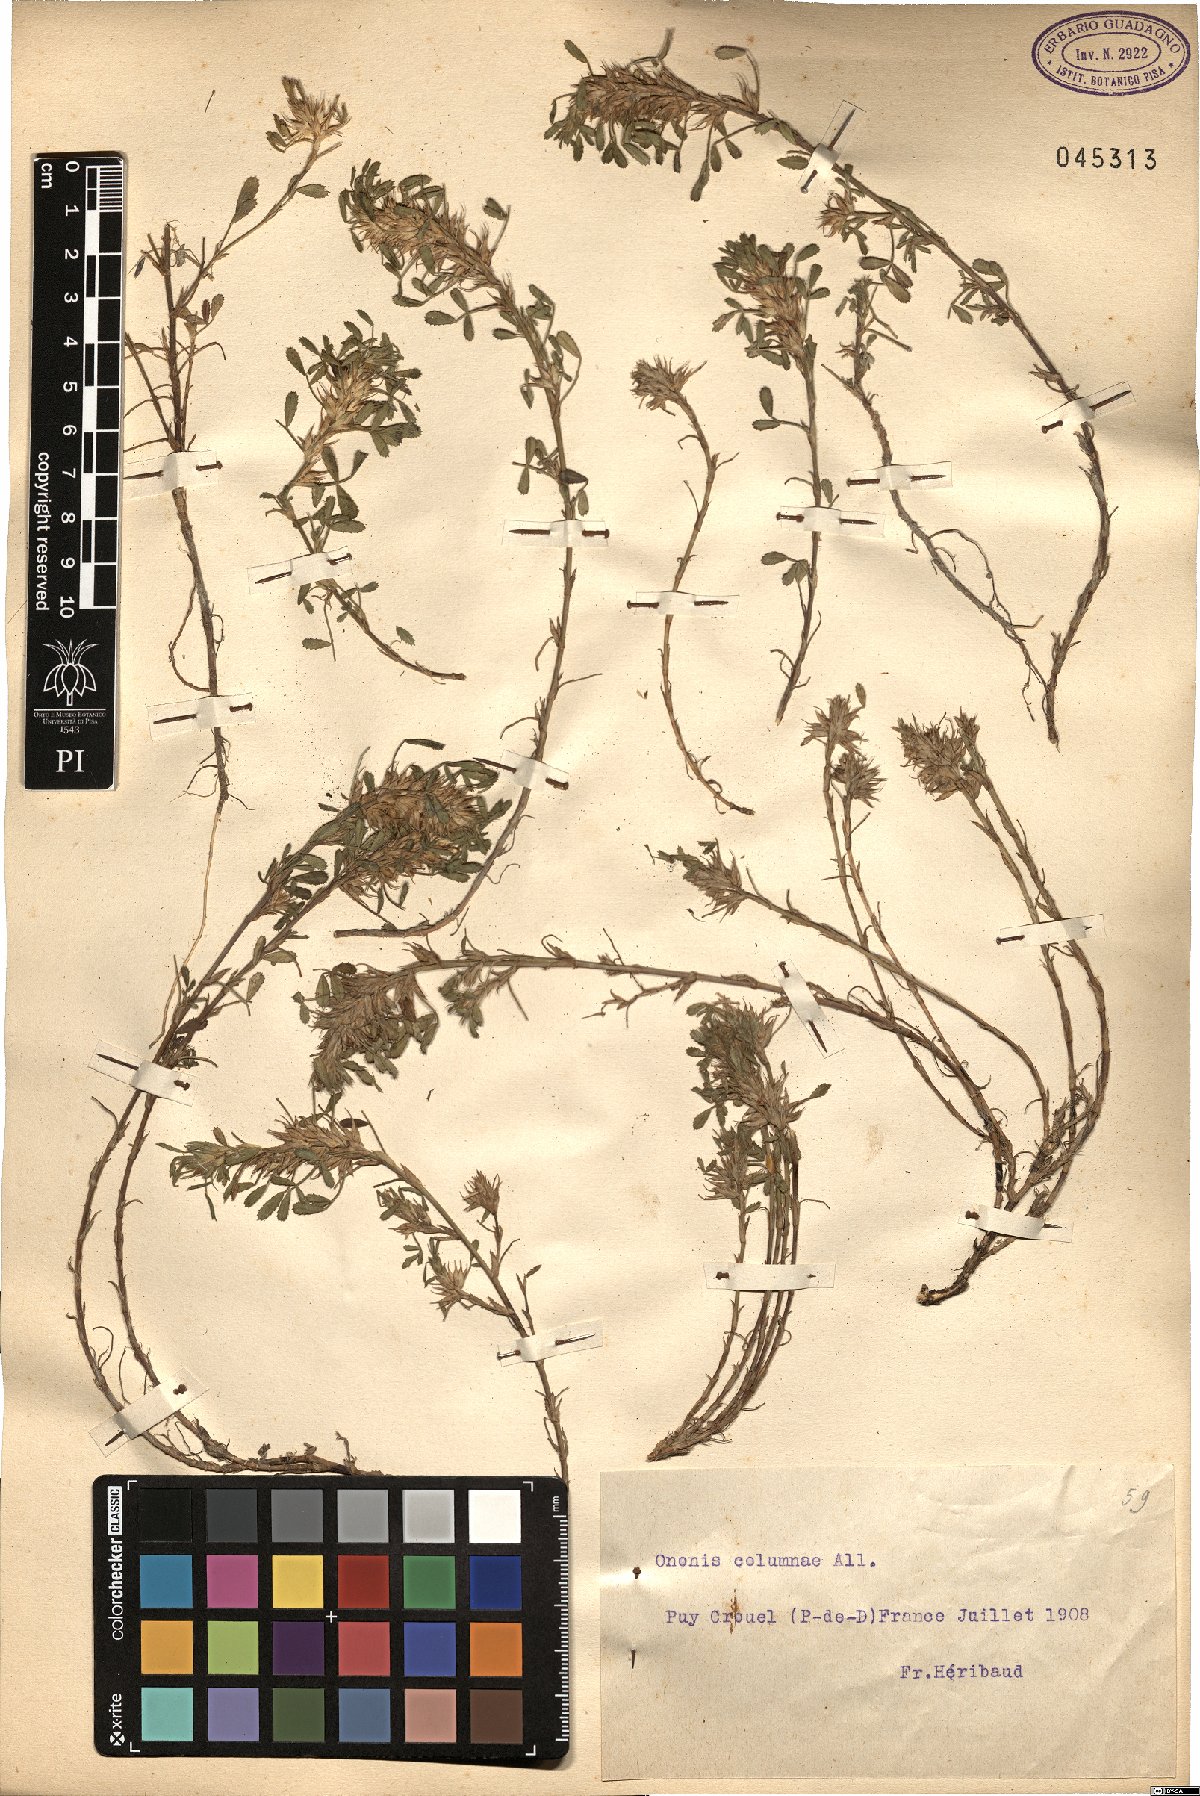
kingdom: Plantae
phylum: Tracheophyta
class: Magnoliopsida
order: Fabales
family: Fabaceae
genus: Ononis
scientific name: Ononis pusilla
